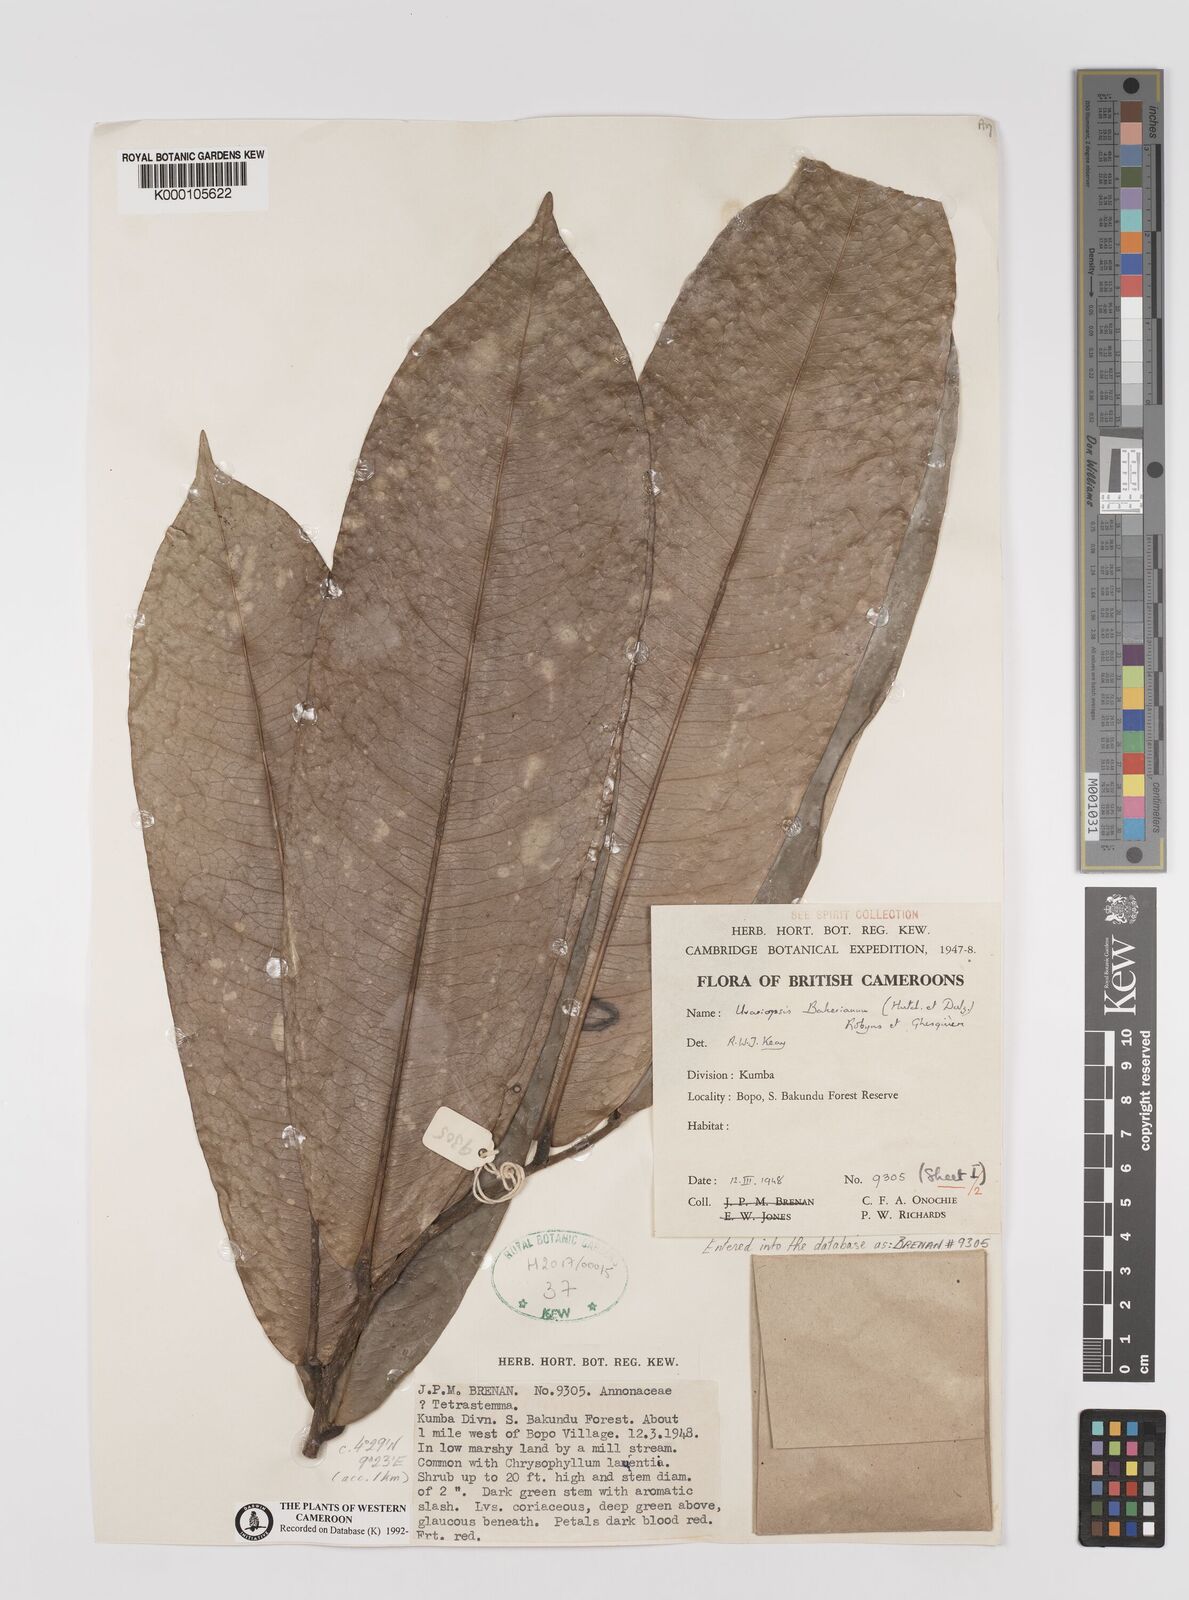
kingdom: Plantae
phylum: Tracheophyta
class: Magnoliopsida
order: Magnoliales
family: Annonaceae
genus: Uvariopsis
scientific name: Uvariopsis bakeriana
